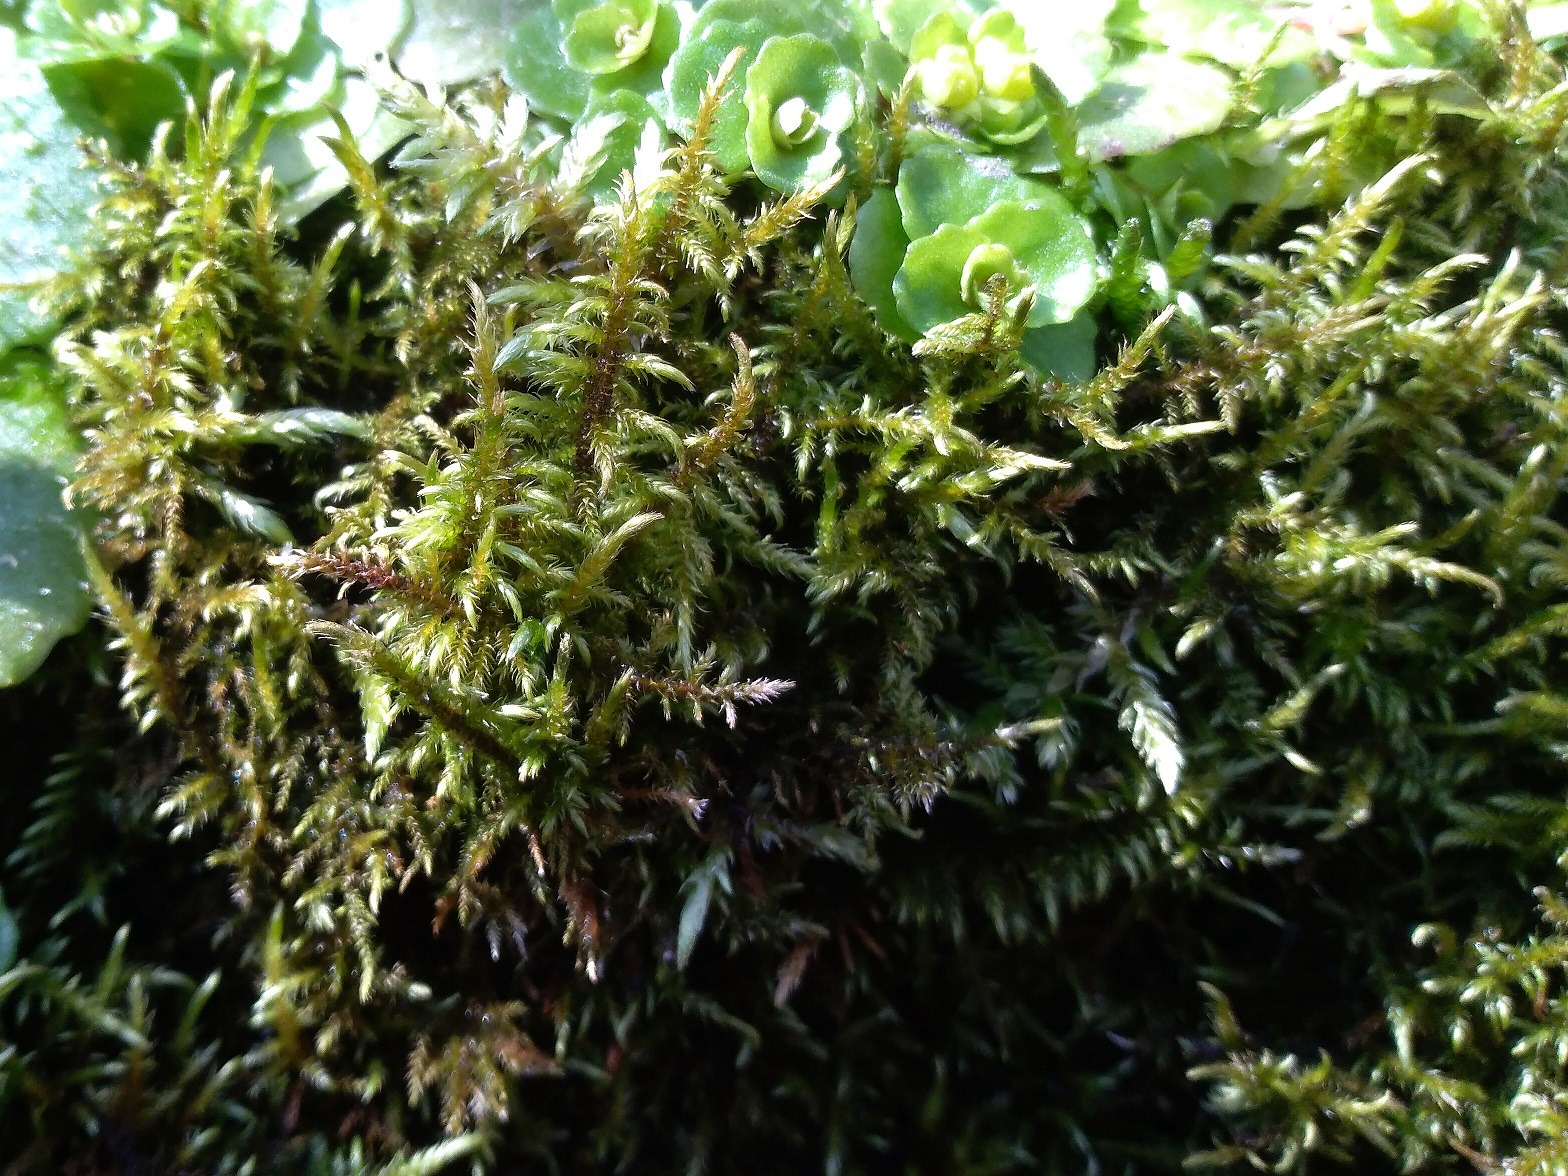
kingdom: Plantae
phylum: Bryophyta
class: Bryopsida
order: Hypnales
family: Amblystegiaceae
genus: Cratoneuron
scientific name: Cratoneuron filicinum
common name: Grøn eremitmos
